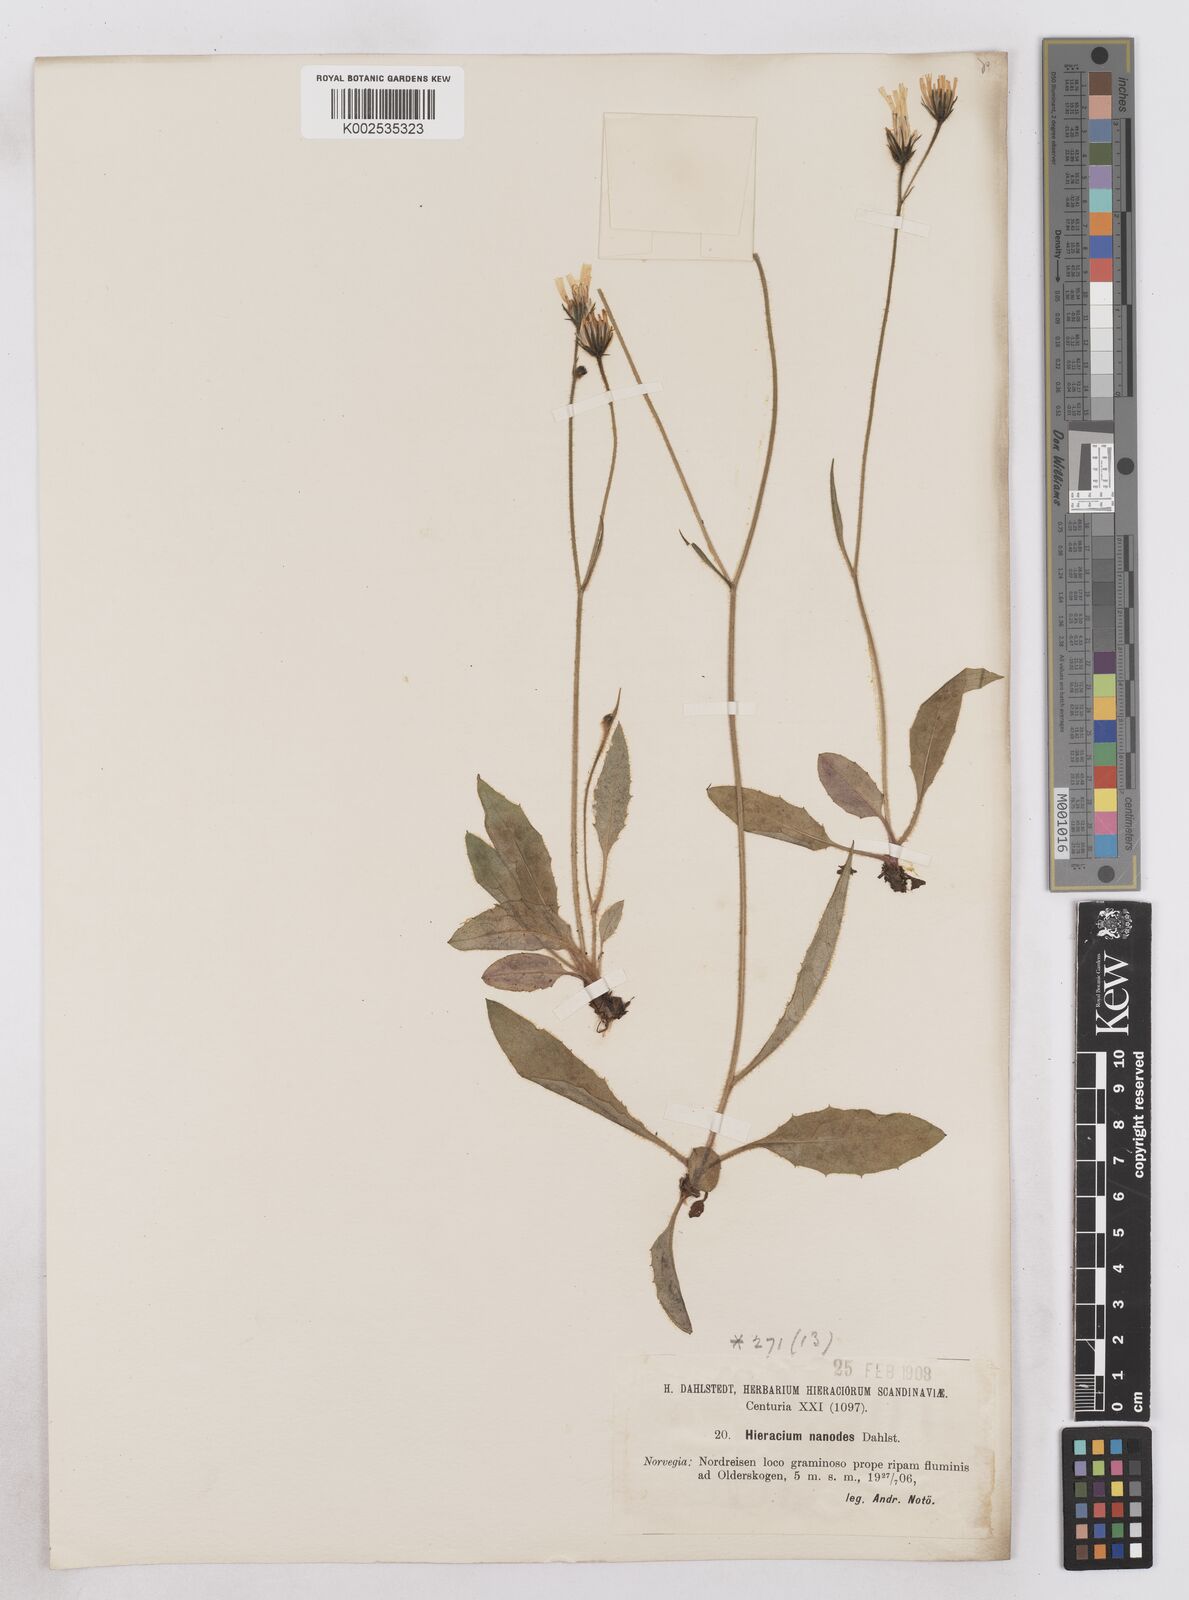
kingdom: Plantae
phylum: Tracheophyta
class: Magnoliopsida
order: Asterales
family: Asteraceae
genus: Hieracium
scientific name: Hieracium tephrosoma
